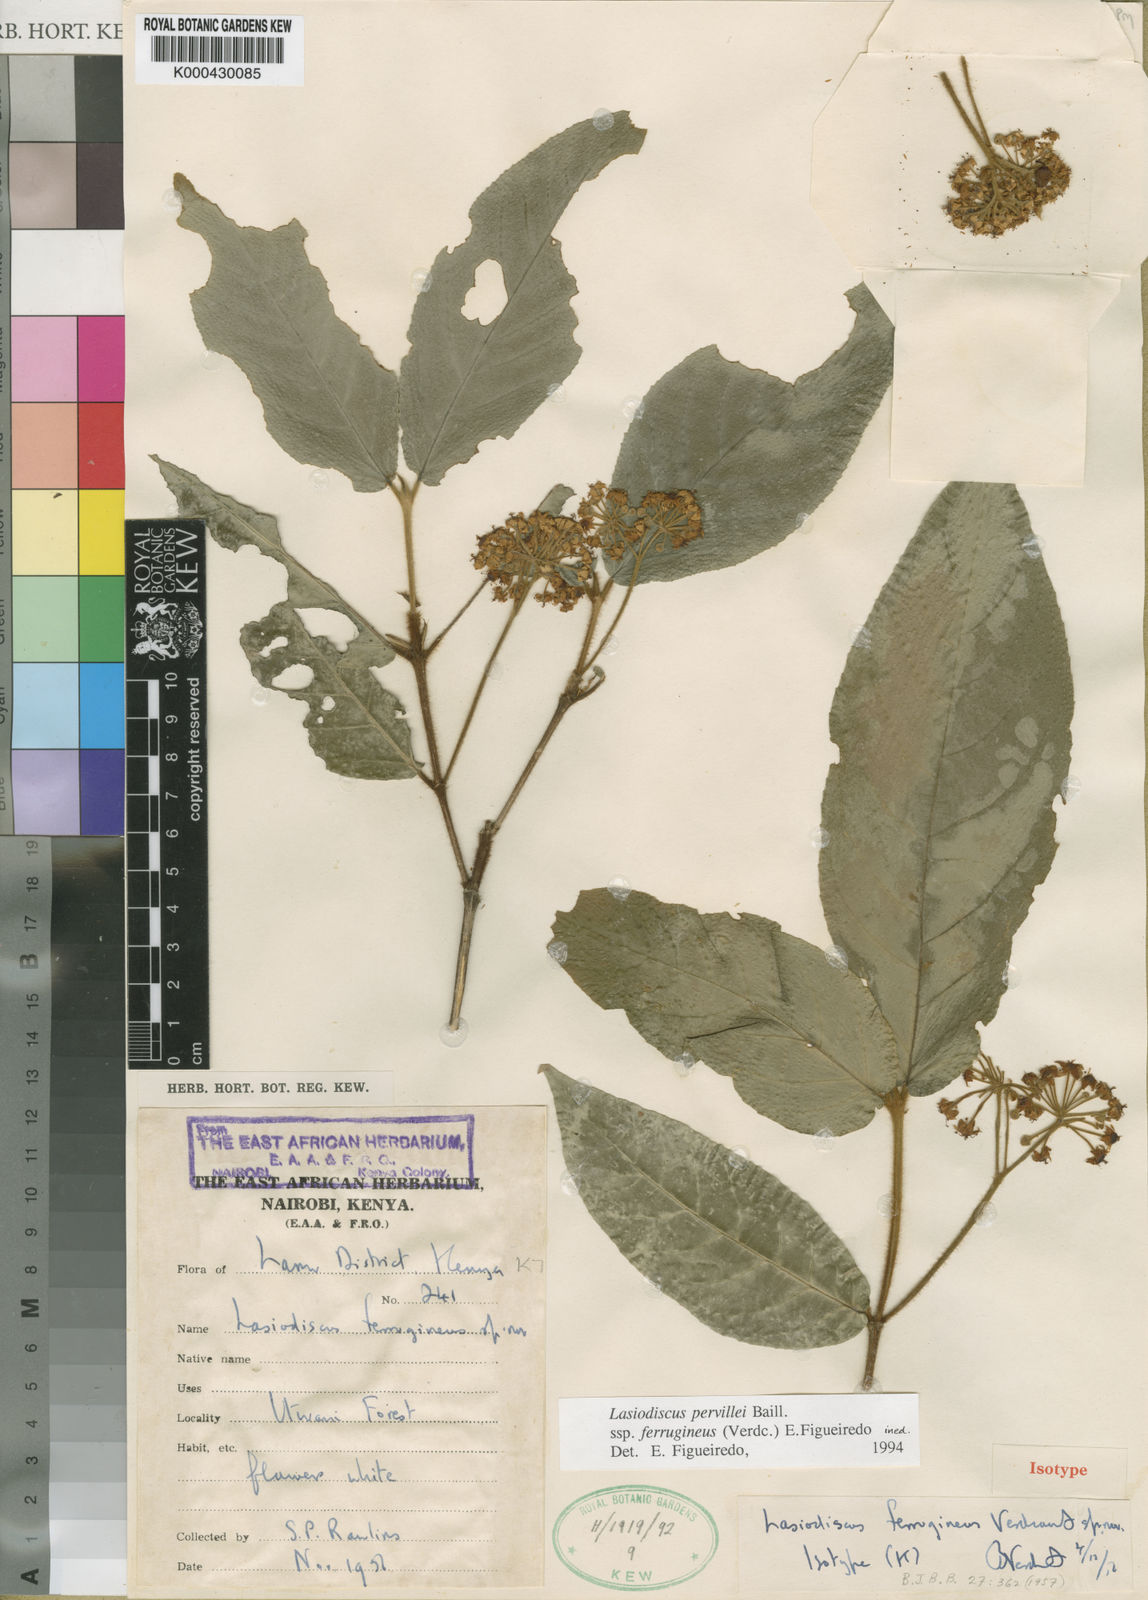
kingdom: Plantae
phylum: Tracheophyta
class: Magnoliopsida
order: Rosales
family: Rhamnaceae
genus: Lasiodiscus
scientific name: Lasiodiscus pervillei
